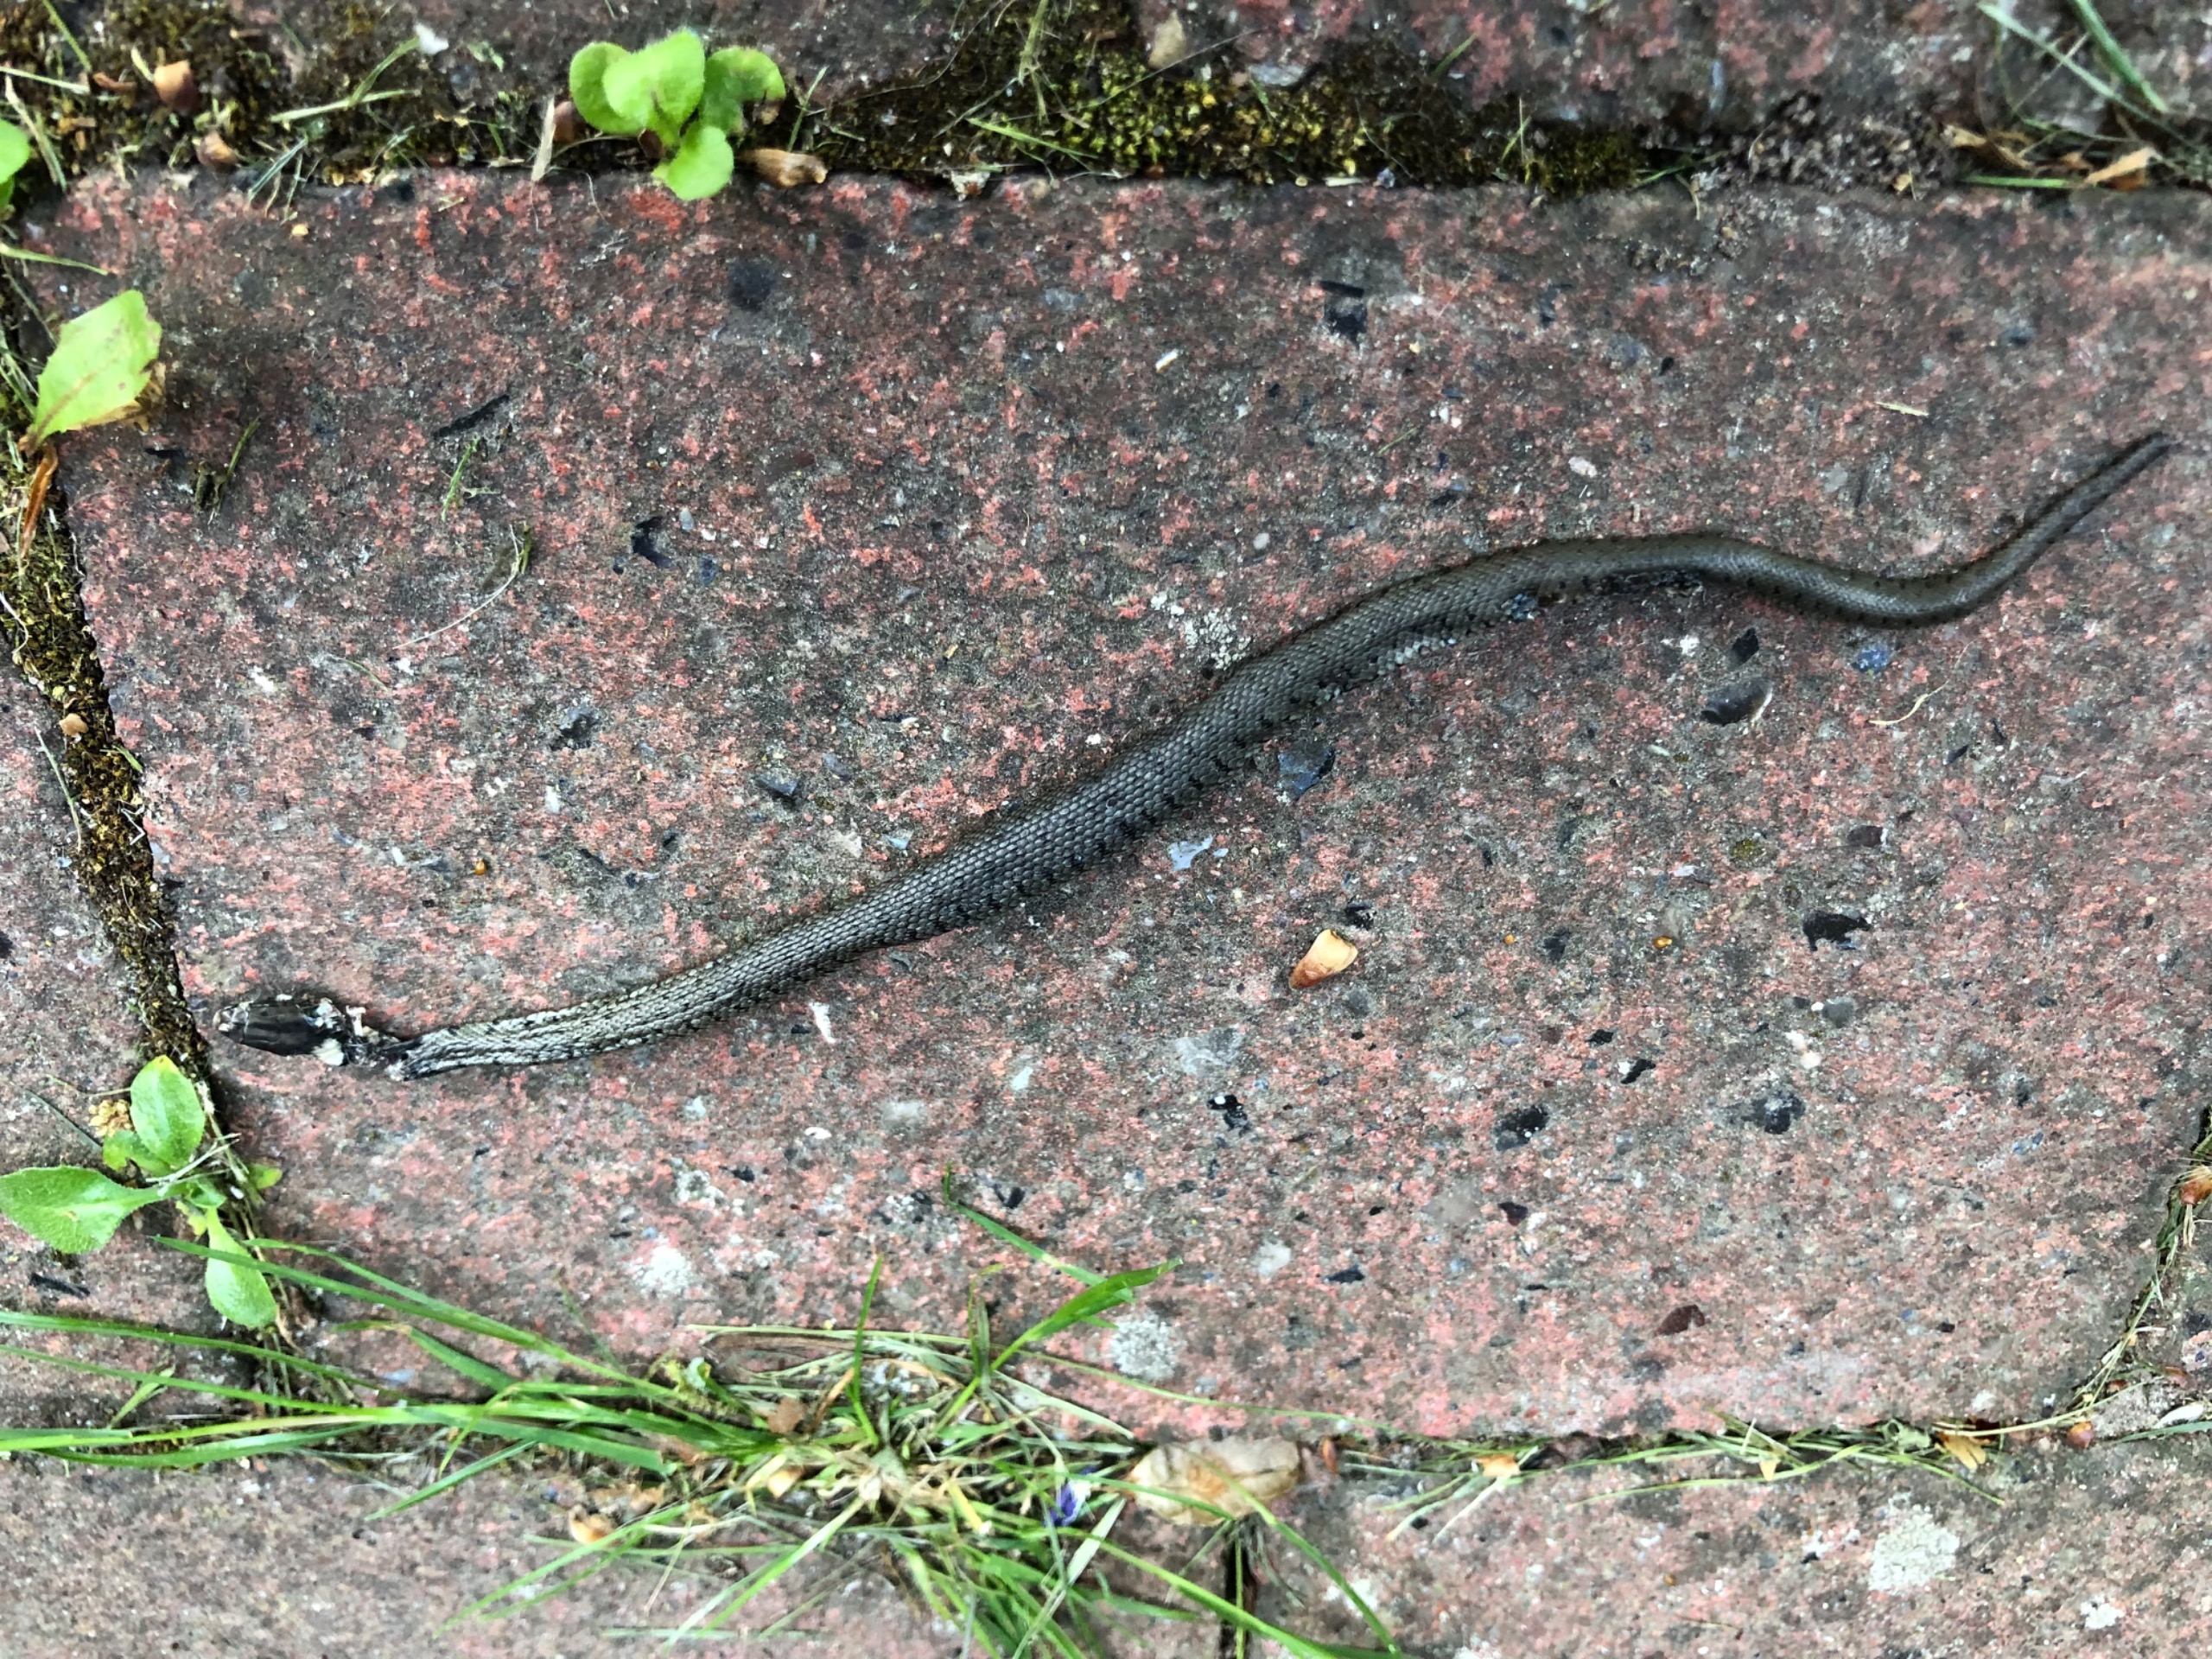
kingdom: Animalia
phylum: Chordata
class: Squamata
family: Colubridae
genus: Natrix
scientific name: Natrix natrix
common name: Snog
